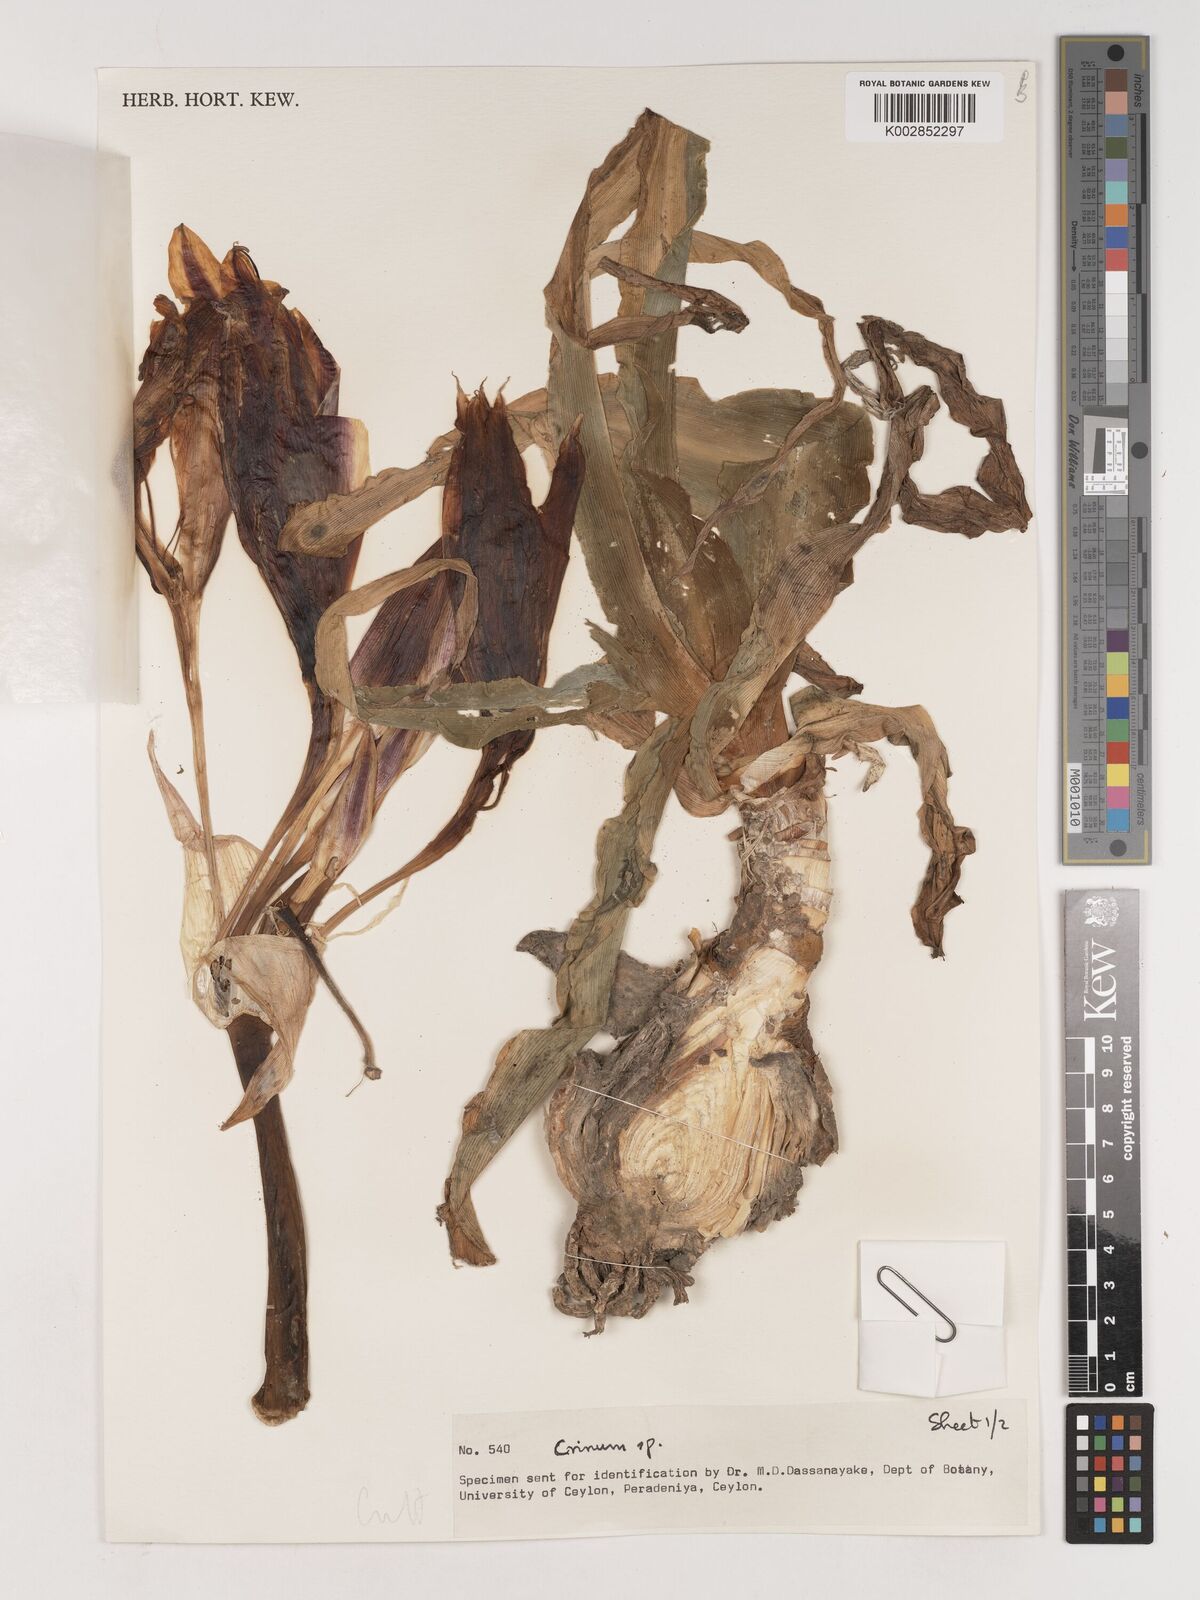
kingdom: Plantae
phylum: Tracheophyta
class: Liliopsida
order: Asparagales
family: Amaryllidaceae
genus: Crinum
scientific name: Crinum
